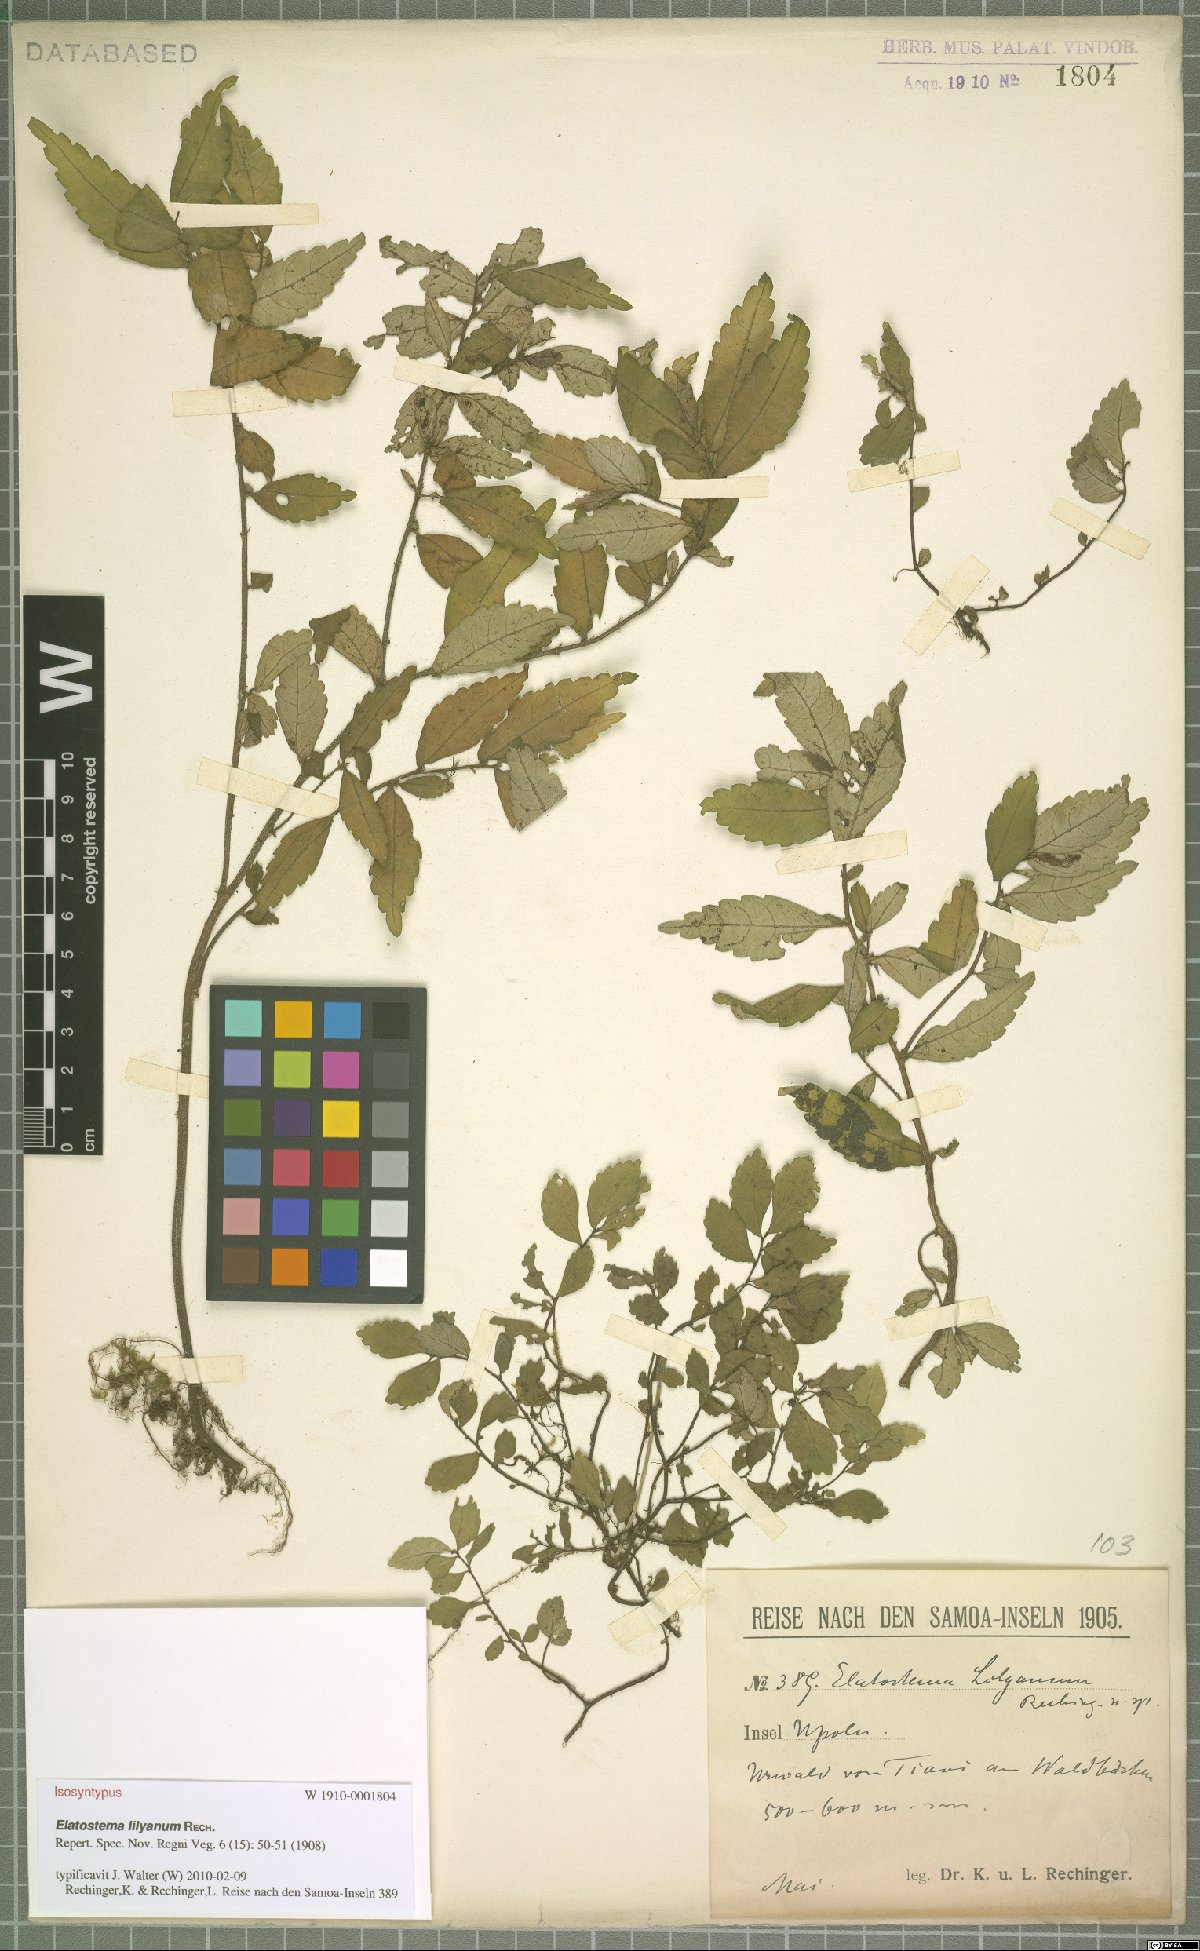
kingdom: Plantae
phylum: Tracheophyta
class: Magnoliopsida
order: Rosales
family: Urticaceae
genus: Elatostema
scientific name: Elatostema lilyanum
